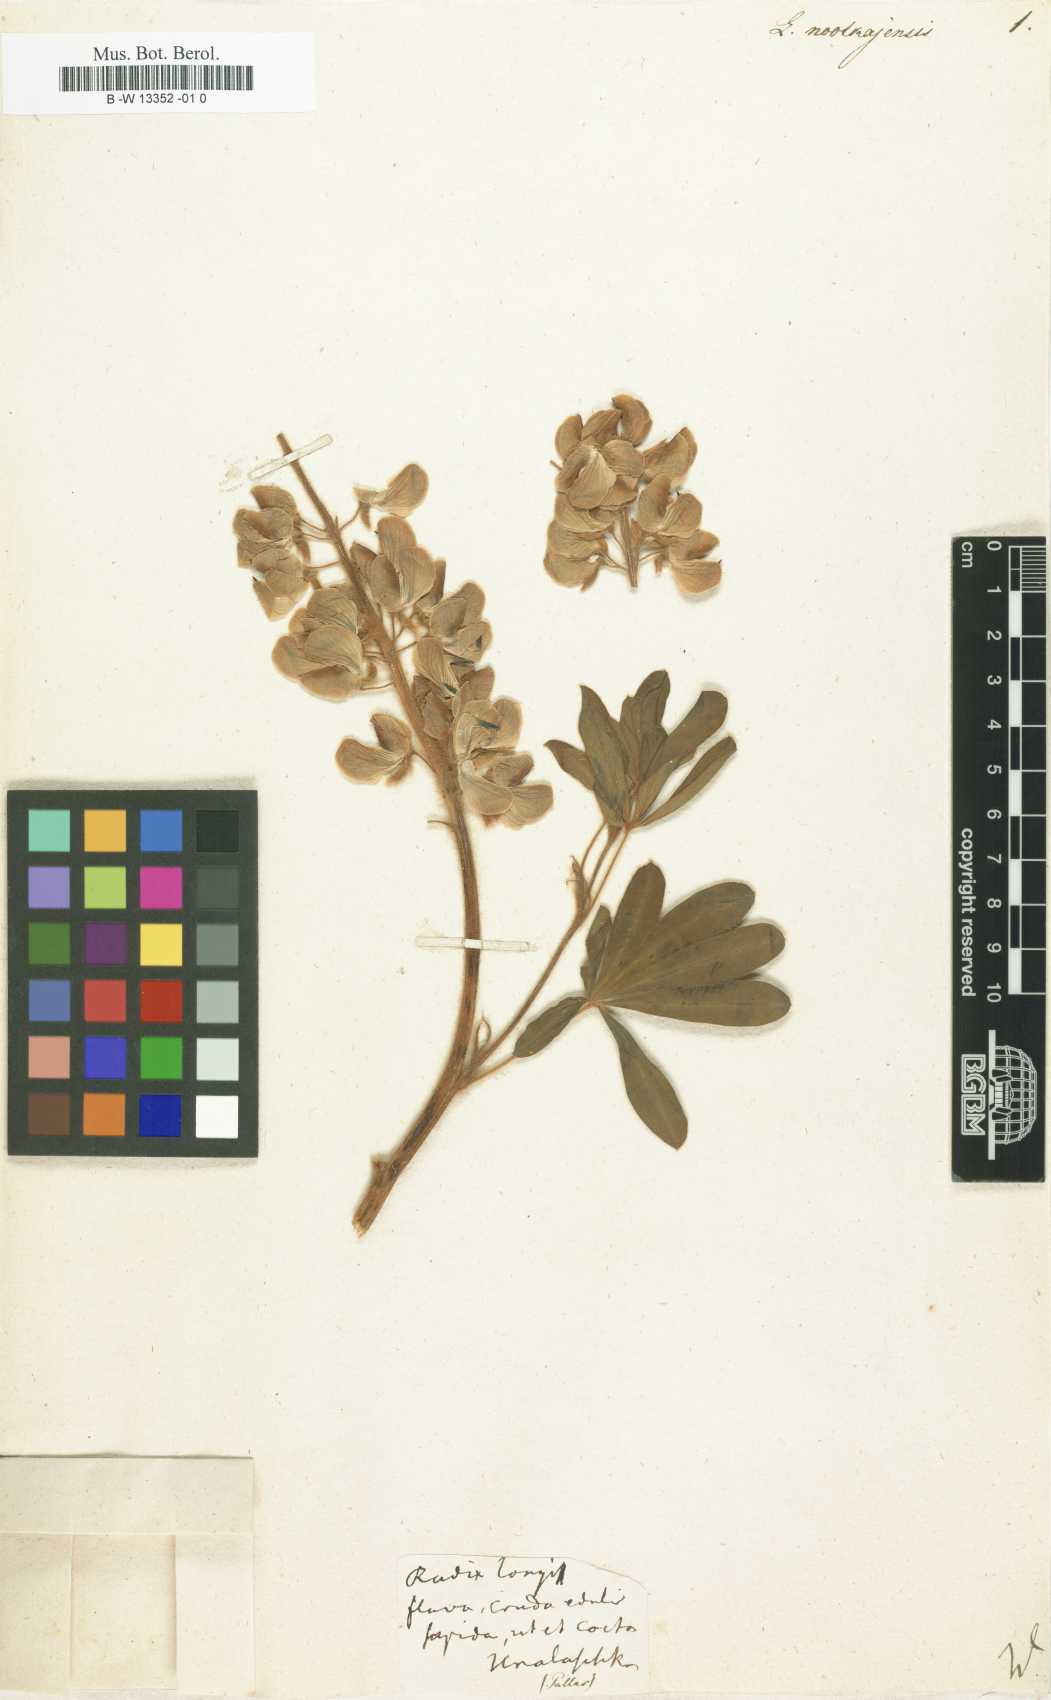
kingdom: Plantae
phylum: Tracheophyta
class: Magnoliopsida
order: Fabales
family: Fabaceae
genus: Lupinus
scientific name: Lupinus nootkatensis
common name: Nootka lupine
